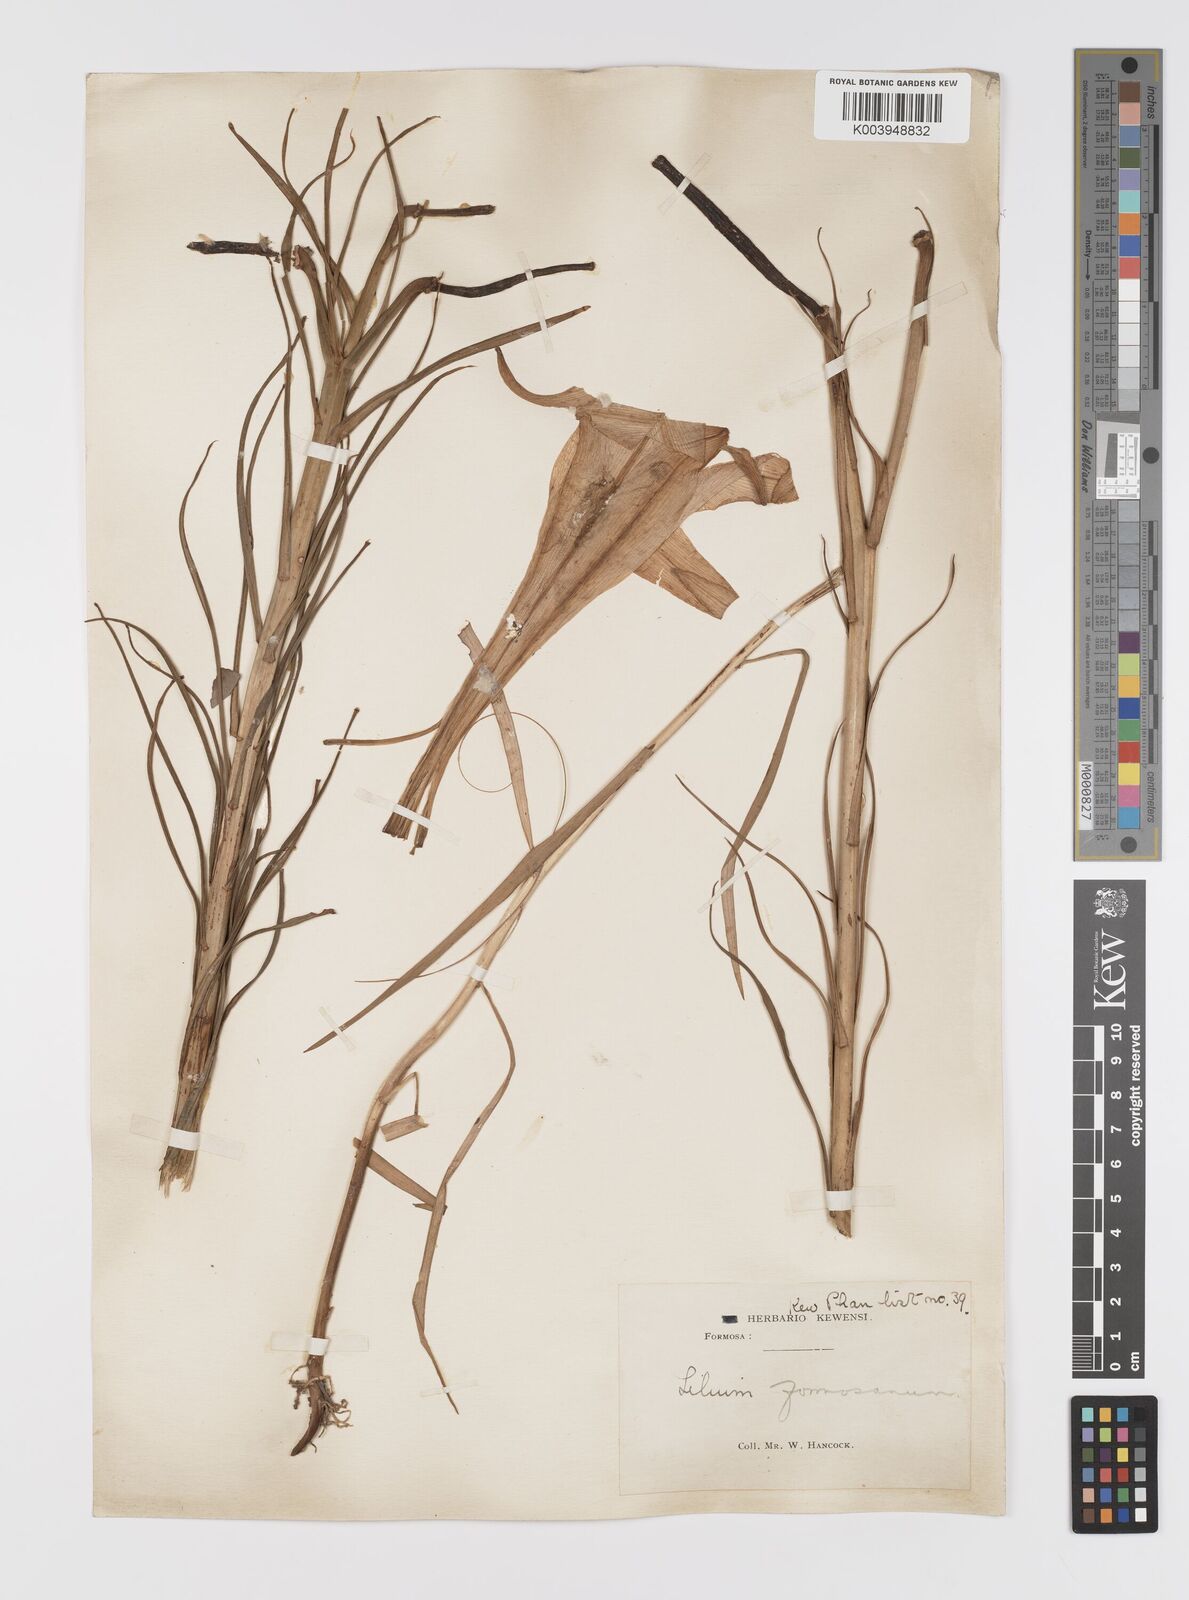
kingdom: Plantae
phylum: Tracheophyta
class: Liliopsida
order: Liliales
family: Liliaceae
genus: Lilium
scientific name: Lilium formosanum
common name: Formosa lily
